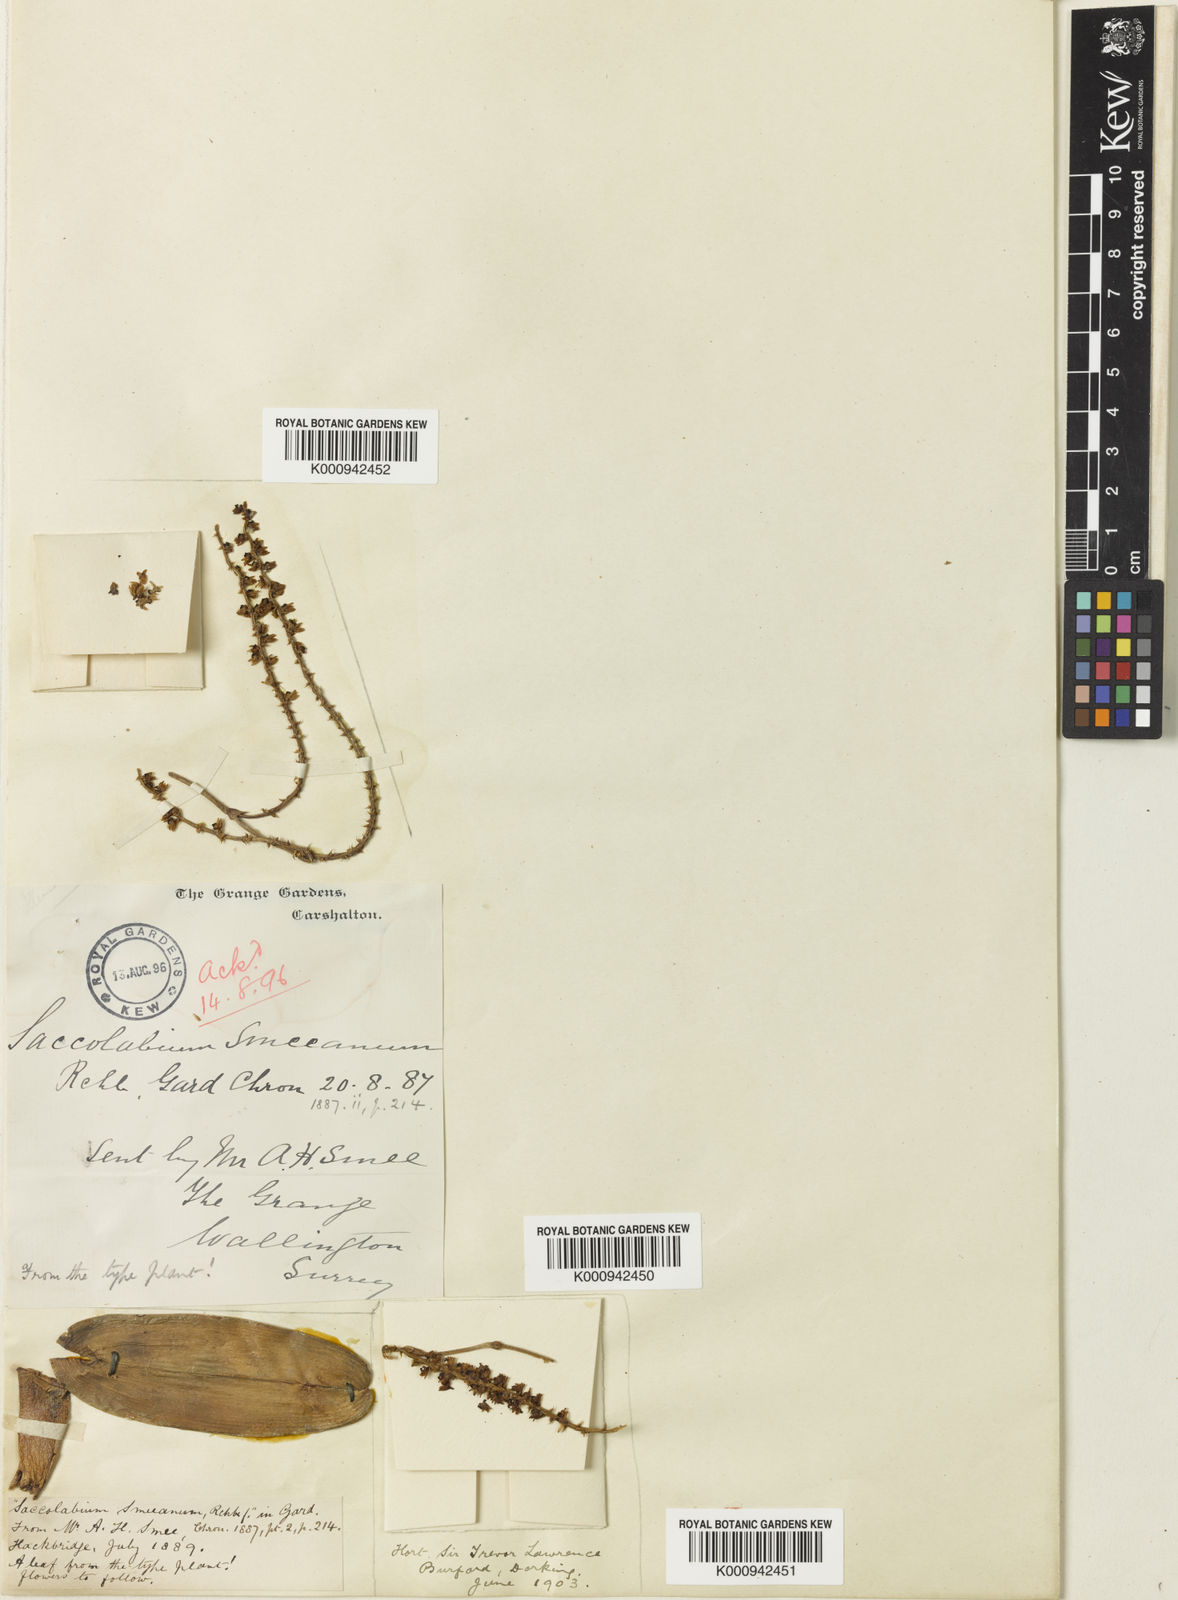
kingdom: Plantae
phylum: Tracheophyta
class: Liliopsida
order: Asparagales
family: Orchidaceae
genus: Schoenorchis
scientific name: Schoenorchis smeeana
